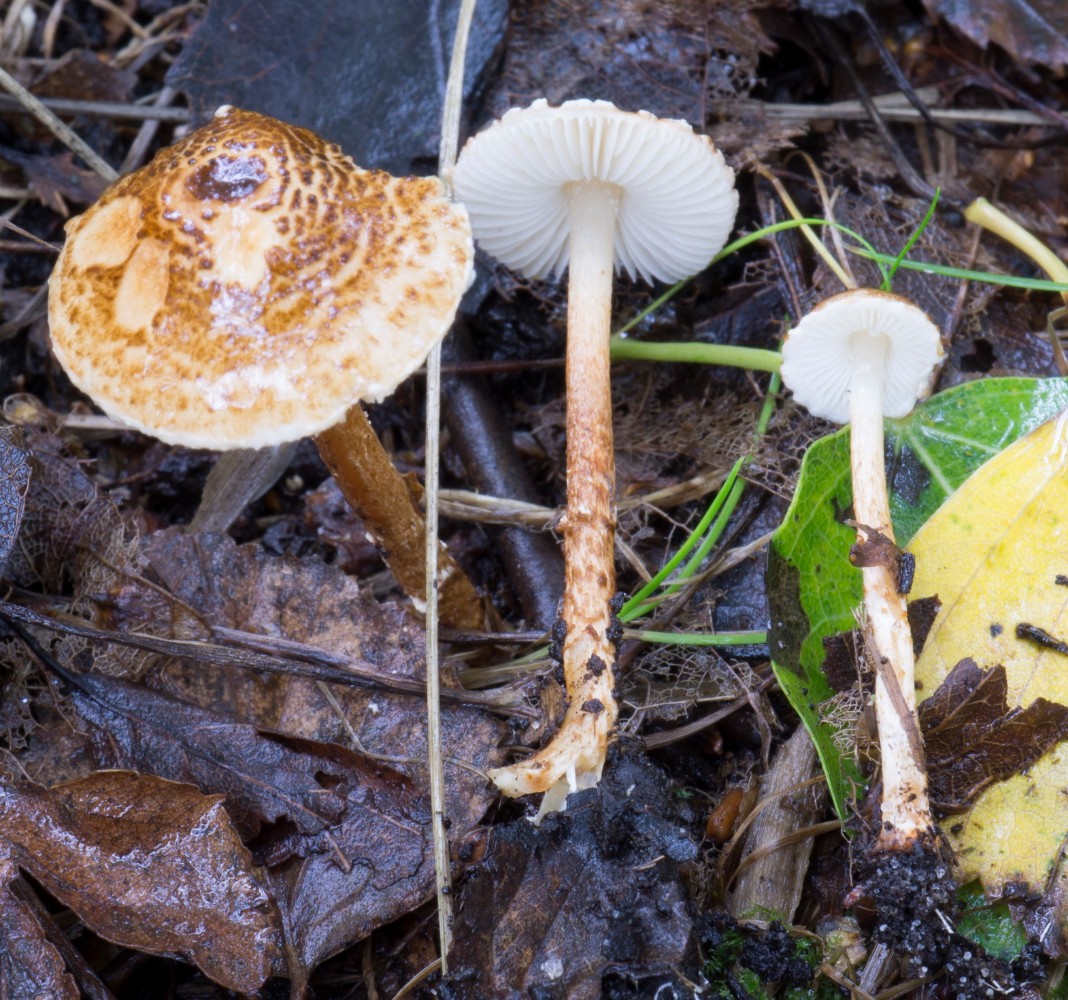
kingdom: Fungi
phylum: Basidiomycota
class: Agaricomycetes
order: Agaricales
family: Agaricaceae
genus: Lepiota
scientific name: Lepiota castanea
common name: kastaniebrun parasolhat
